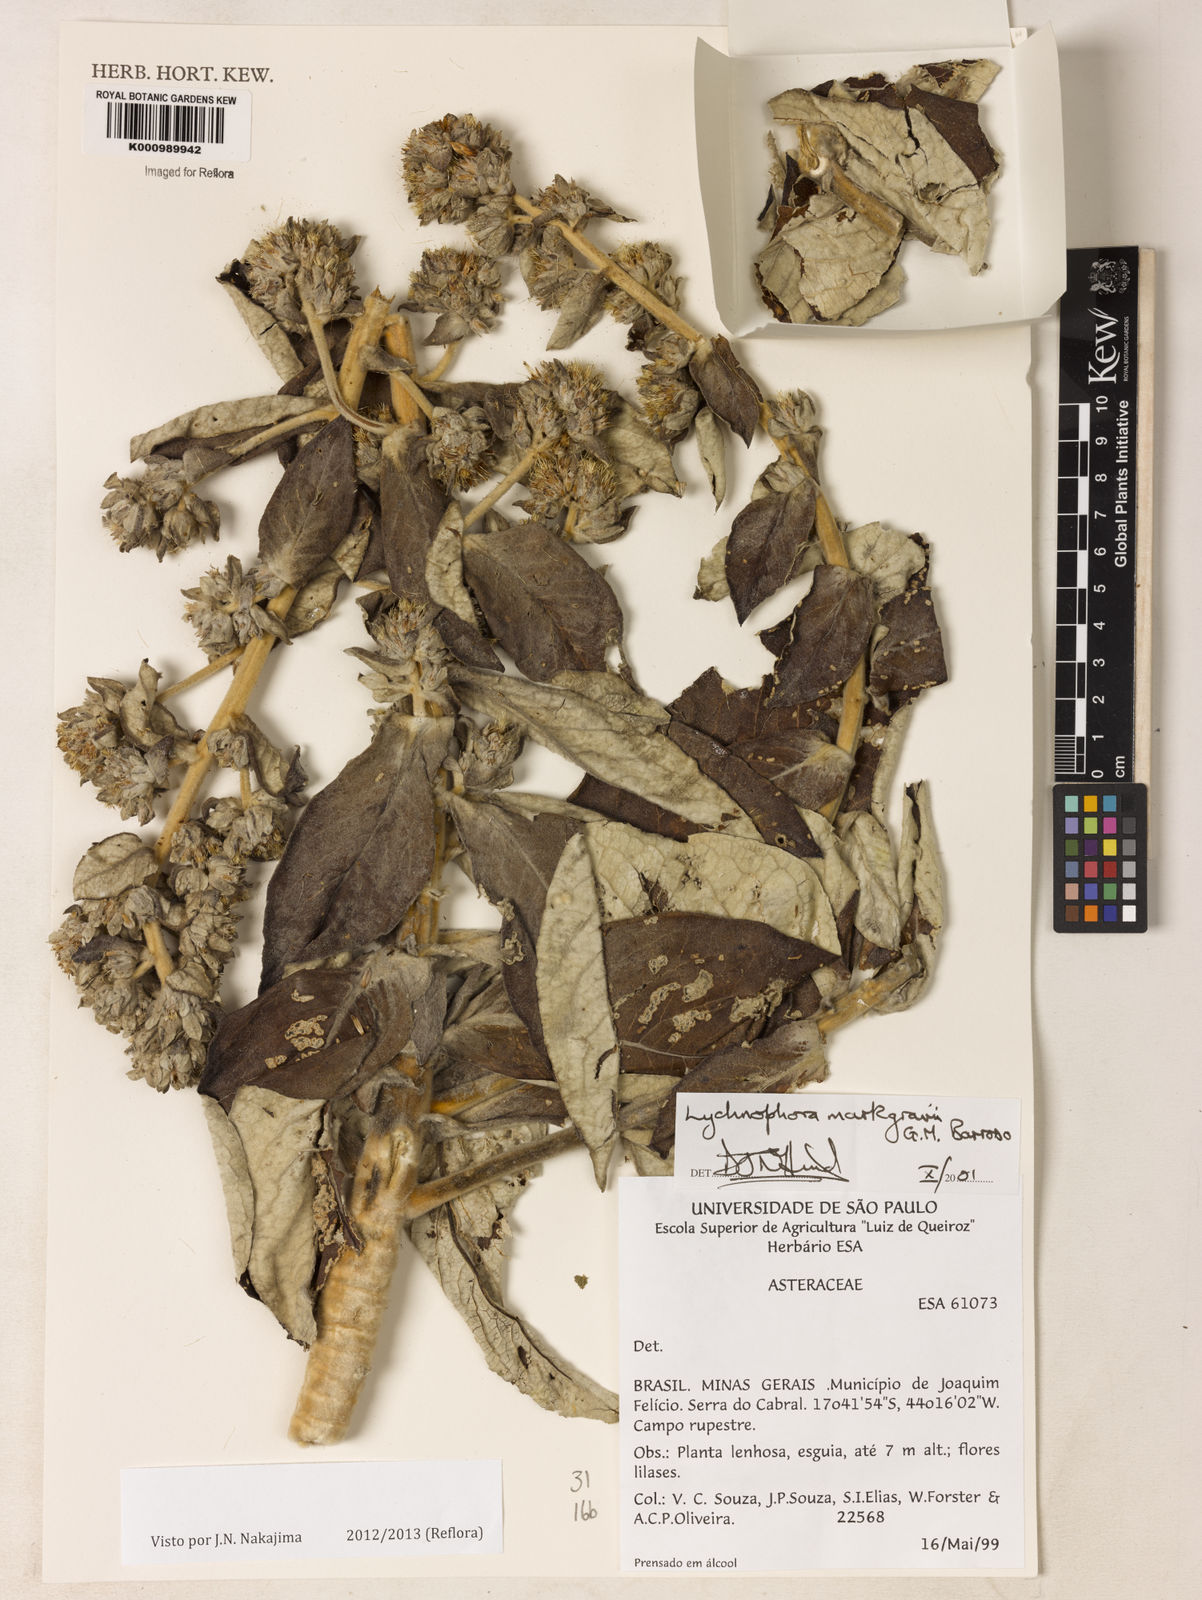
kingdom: Plantae
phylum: Tracheophyta
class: Magnoliopsida
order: Asterales
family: Asteraceae
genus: Lychnophora
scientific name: Lychnophora
